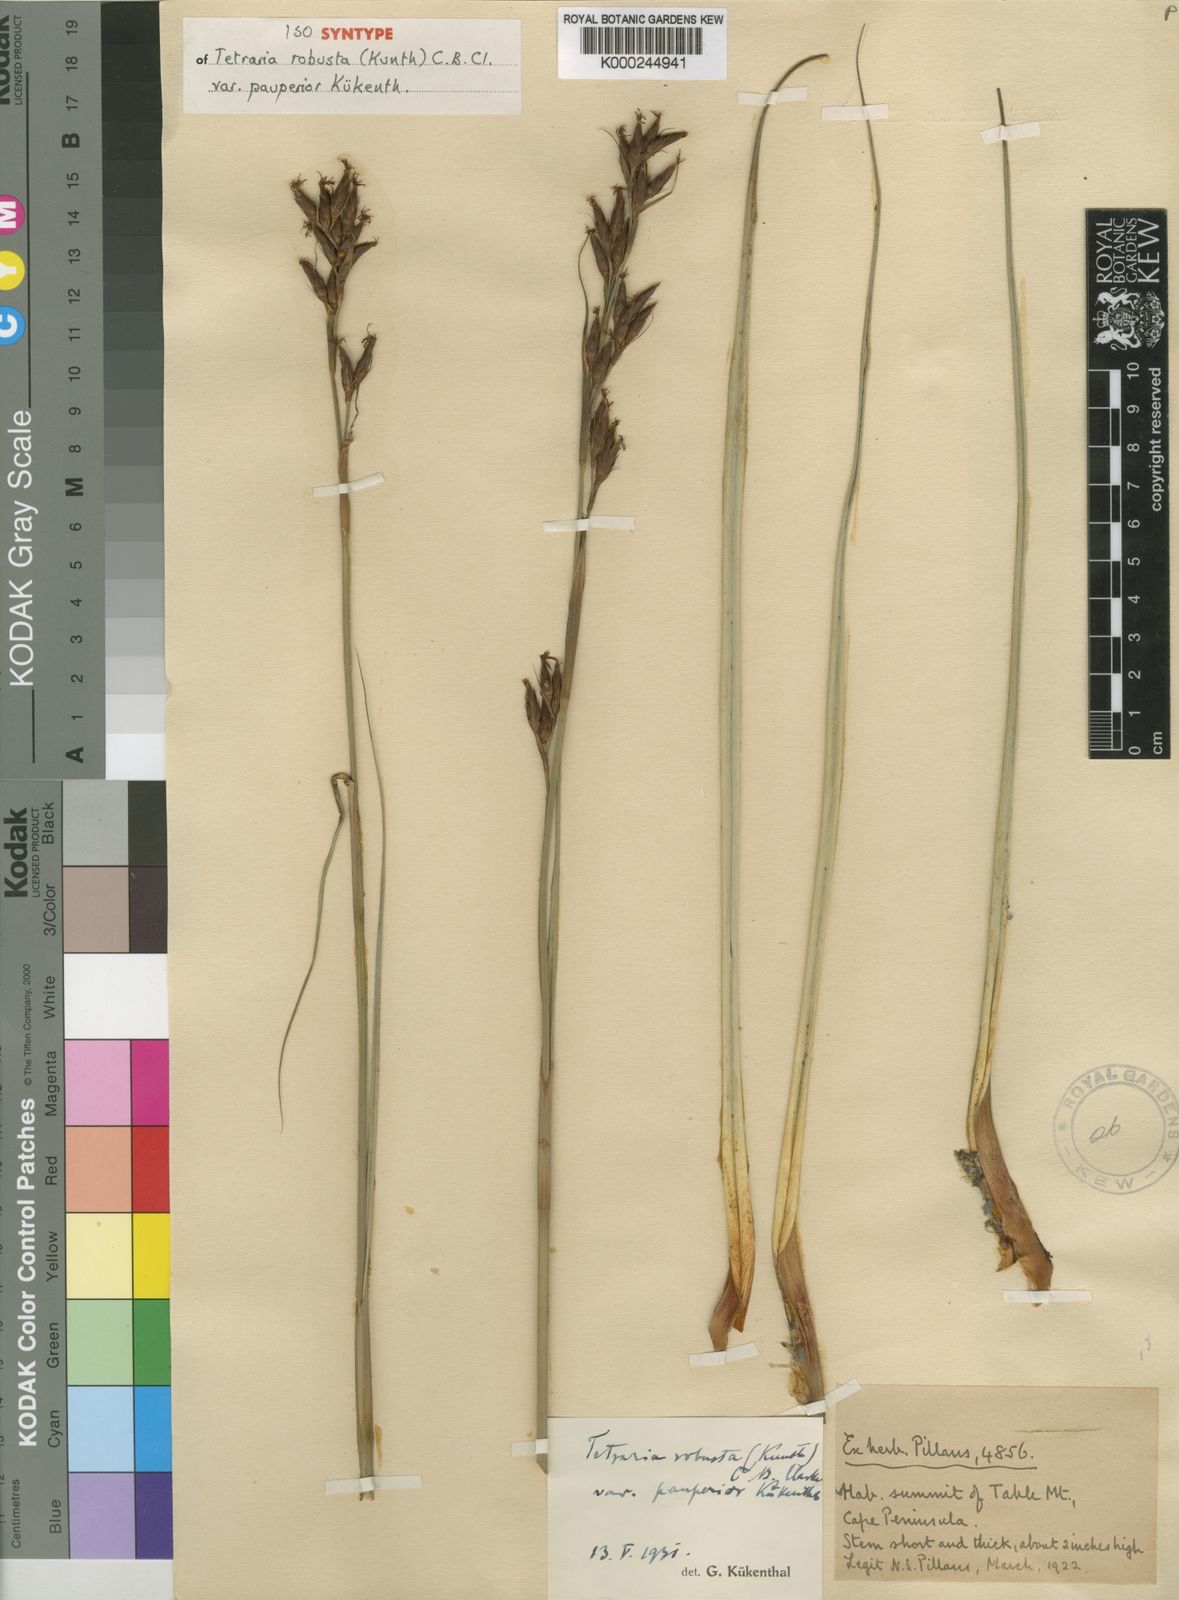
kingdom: Plantae
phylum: Tracheophyta
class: Liliopsida
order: Poales
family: Cyperaceae
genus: Tetraria
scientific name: Tetraria macowaniana
